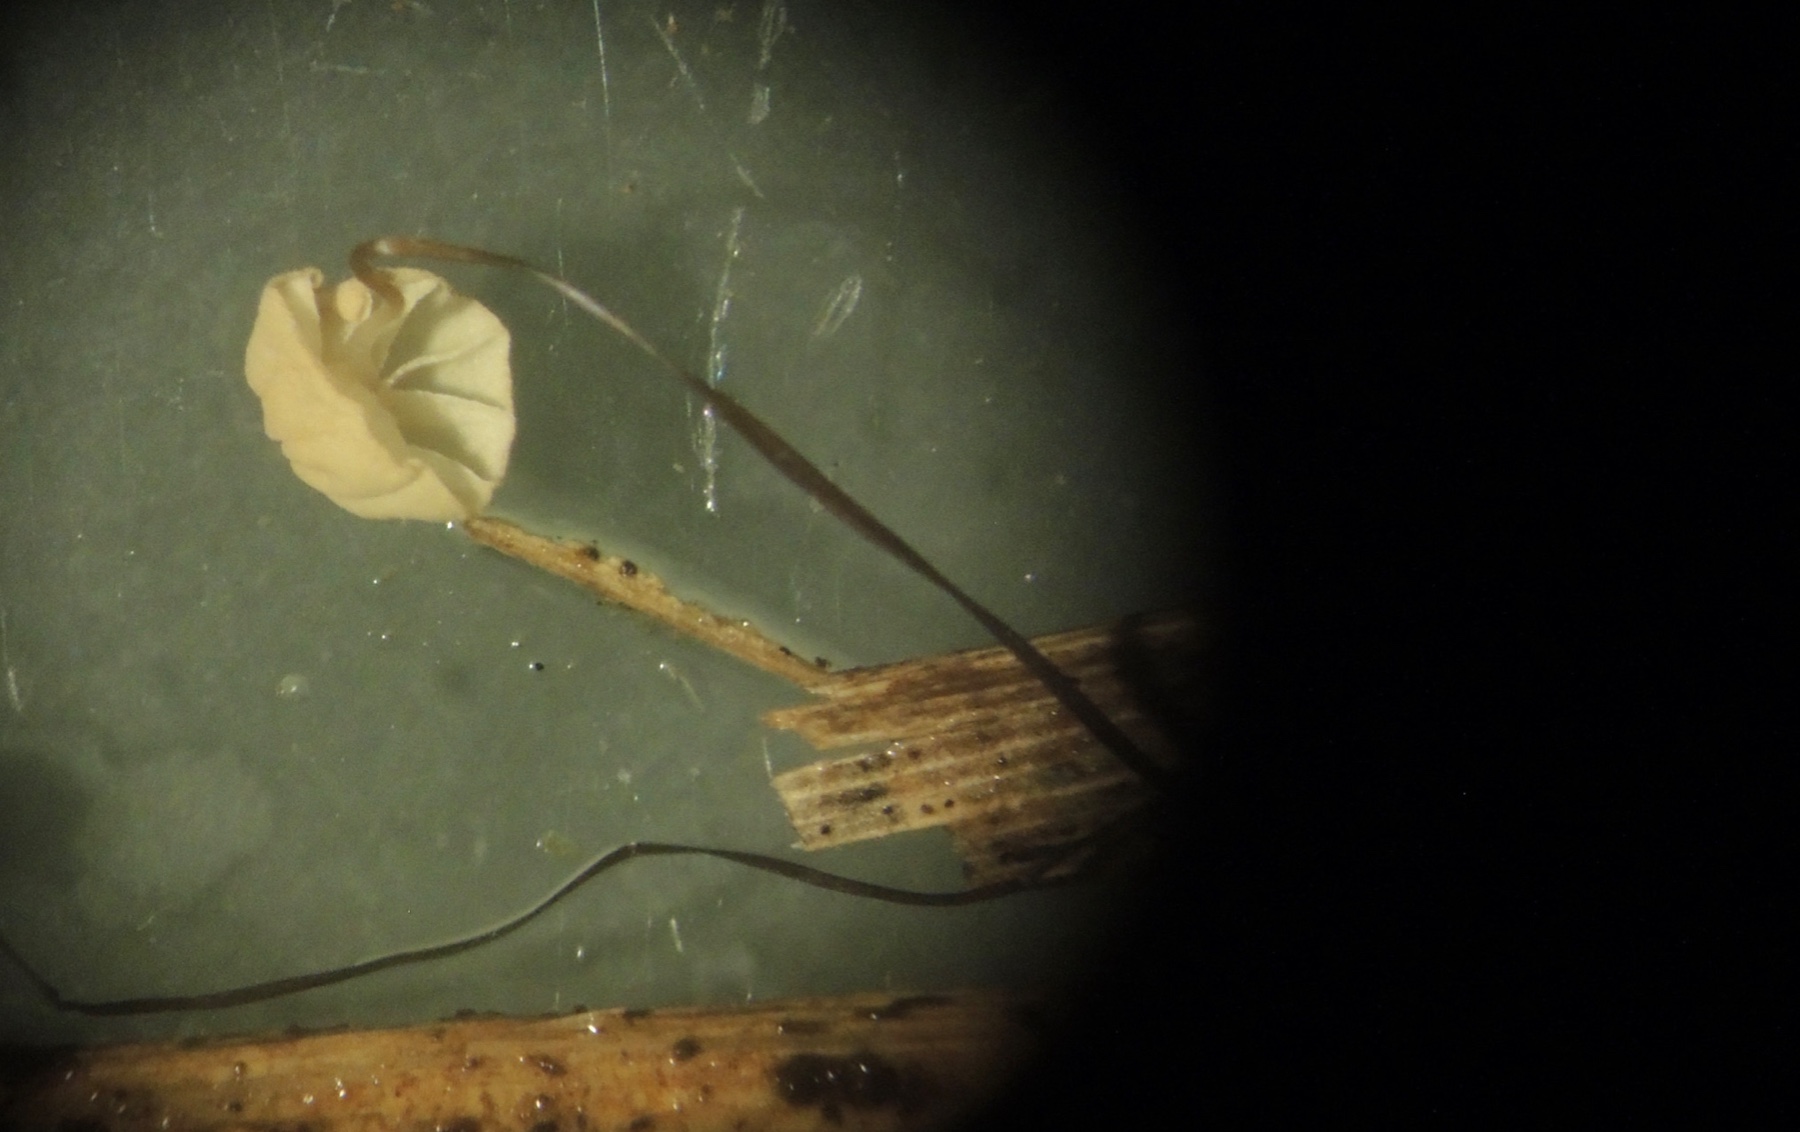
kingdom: Fungi
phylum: Basidiomycota
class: Agaricomycetes
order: Agaricales
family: Marasmiaceae
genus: Marasmius
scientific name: Marasmius limosus
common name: kær-bruskhat
